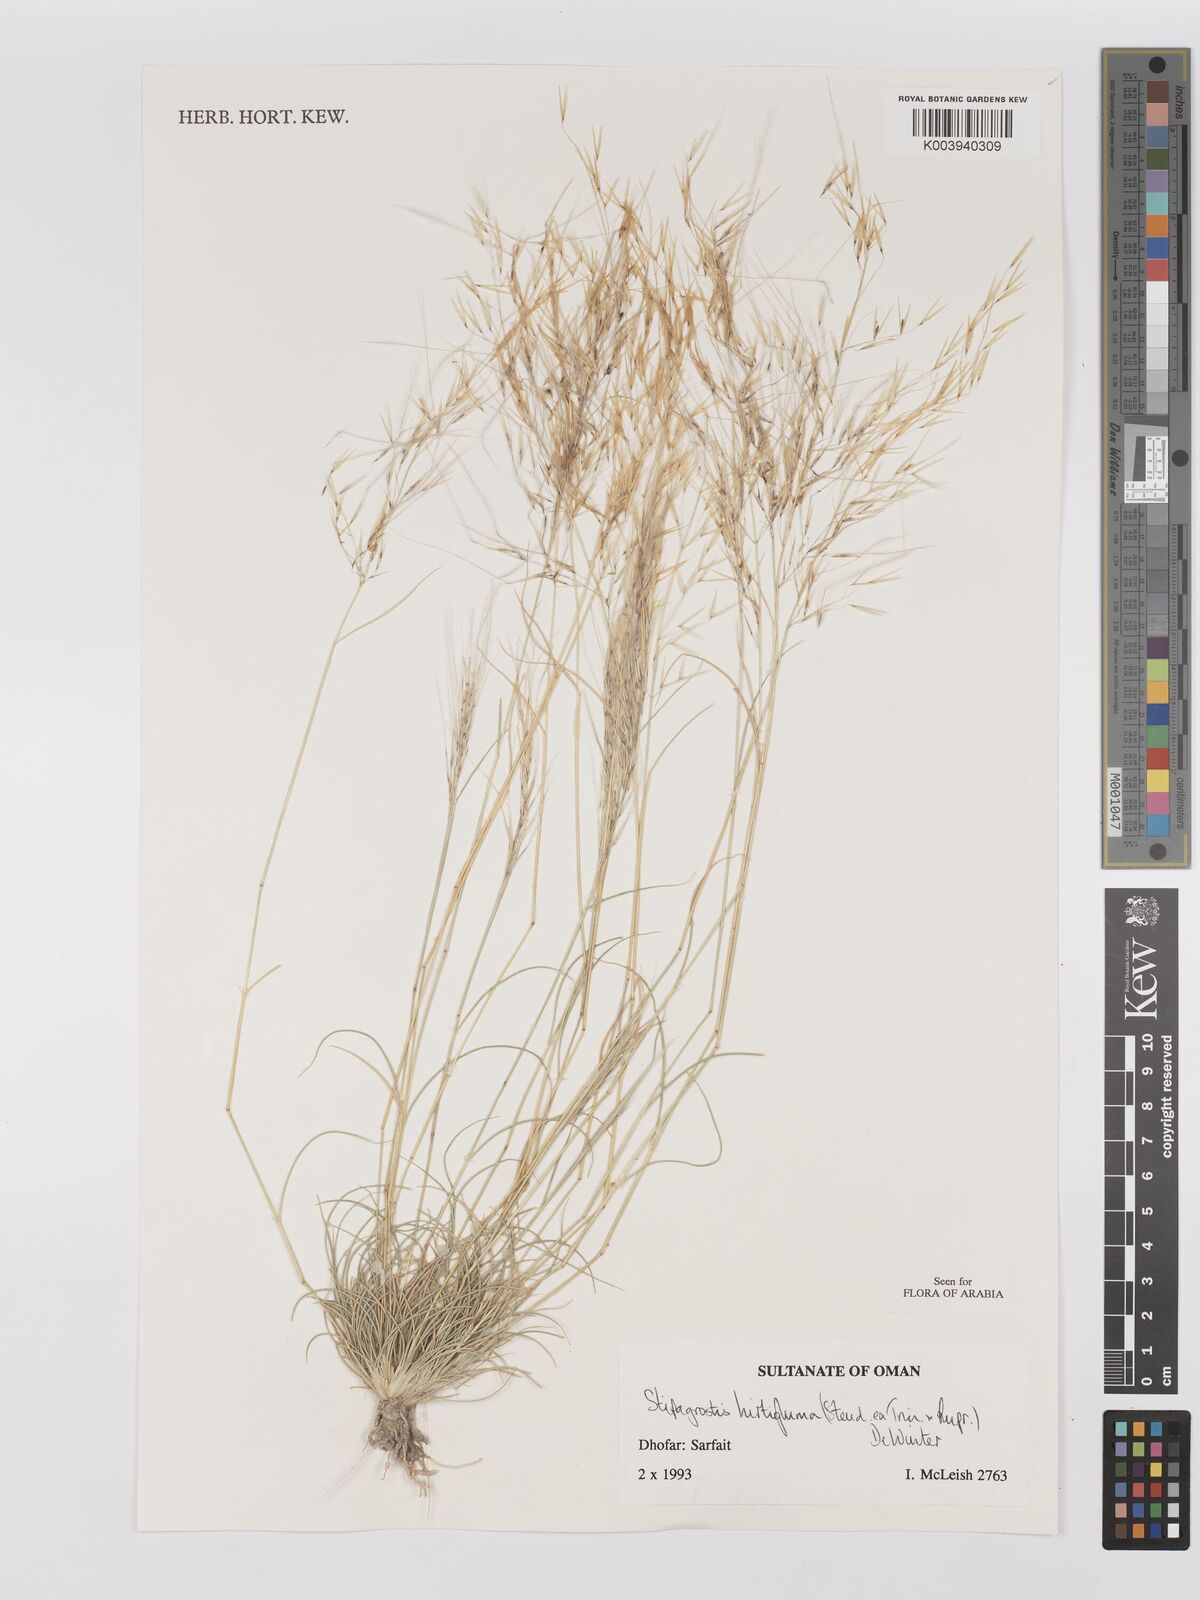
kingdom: Plantae
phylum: Tracheophyta
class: Liliopsida
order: Poales
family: Poaceae
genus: Stipagrostis
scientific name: Stipagrostis hirtigluma
